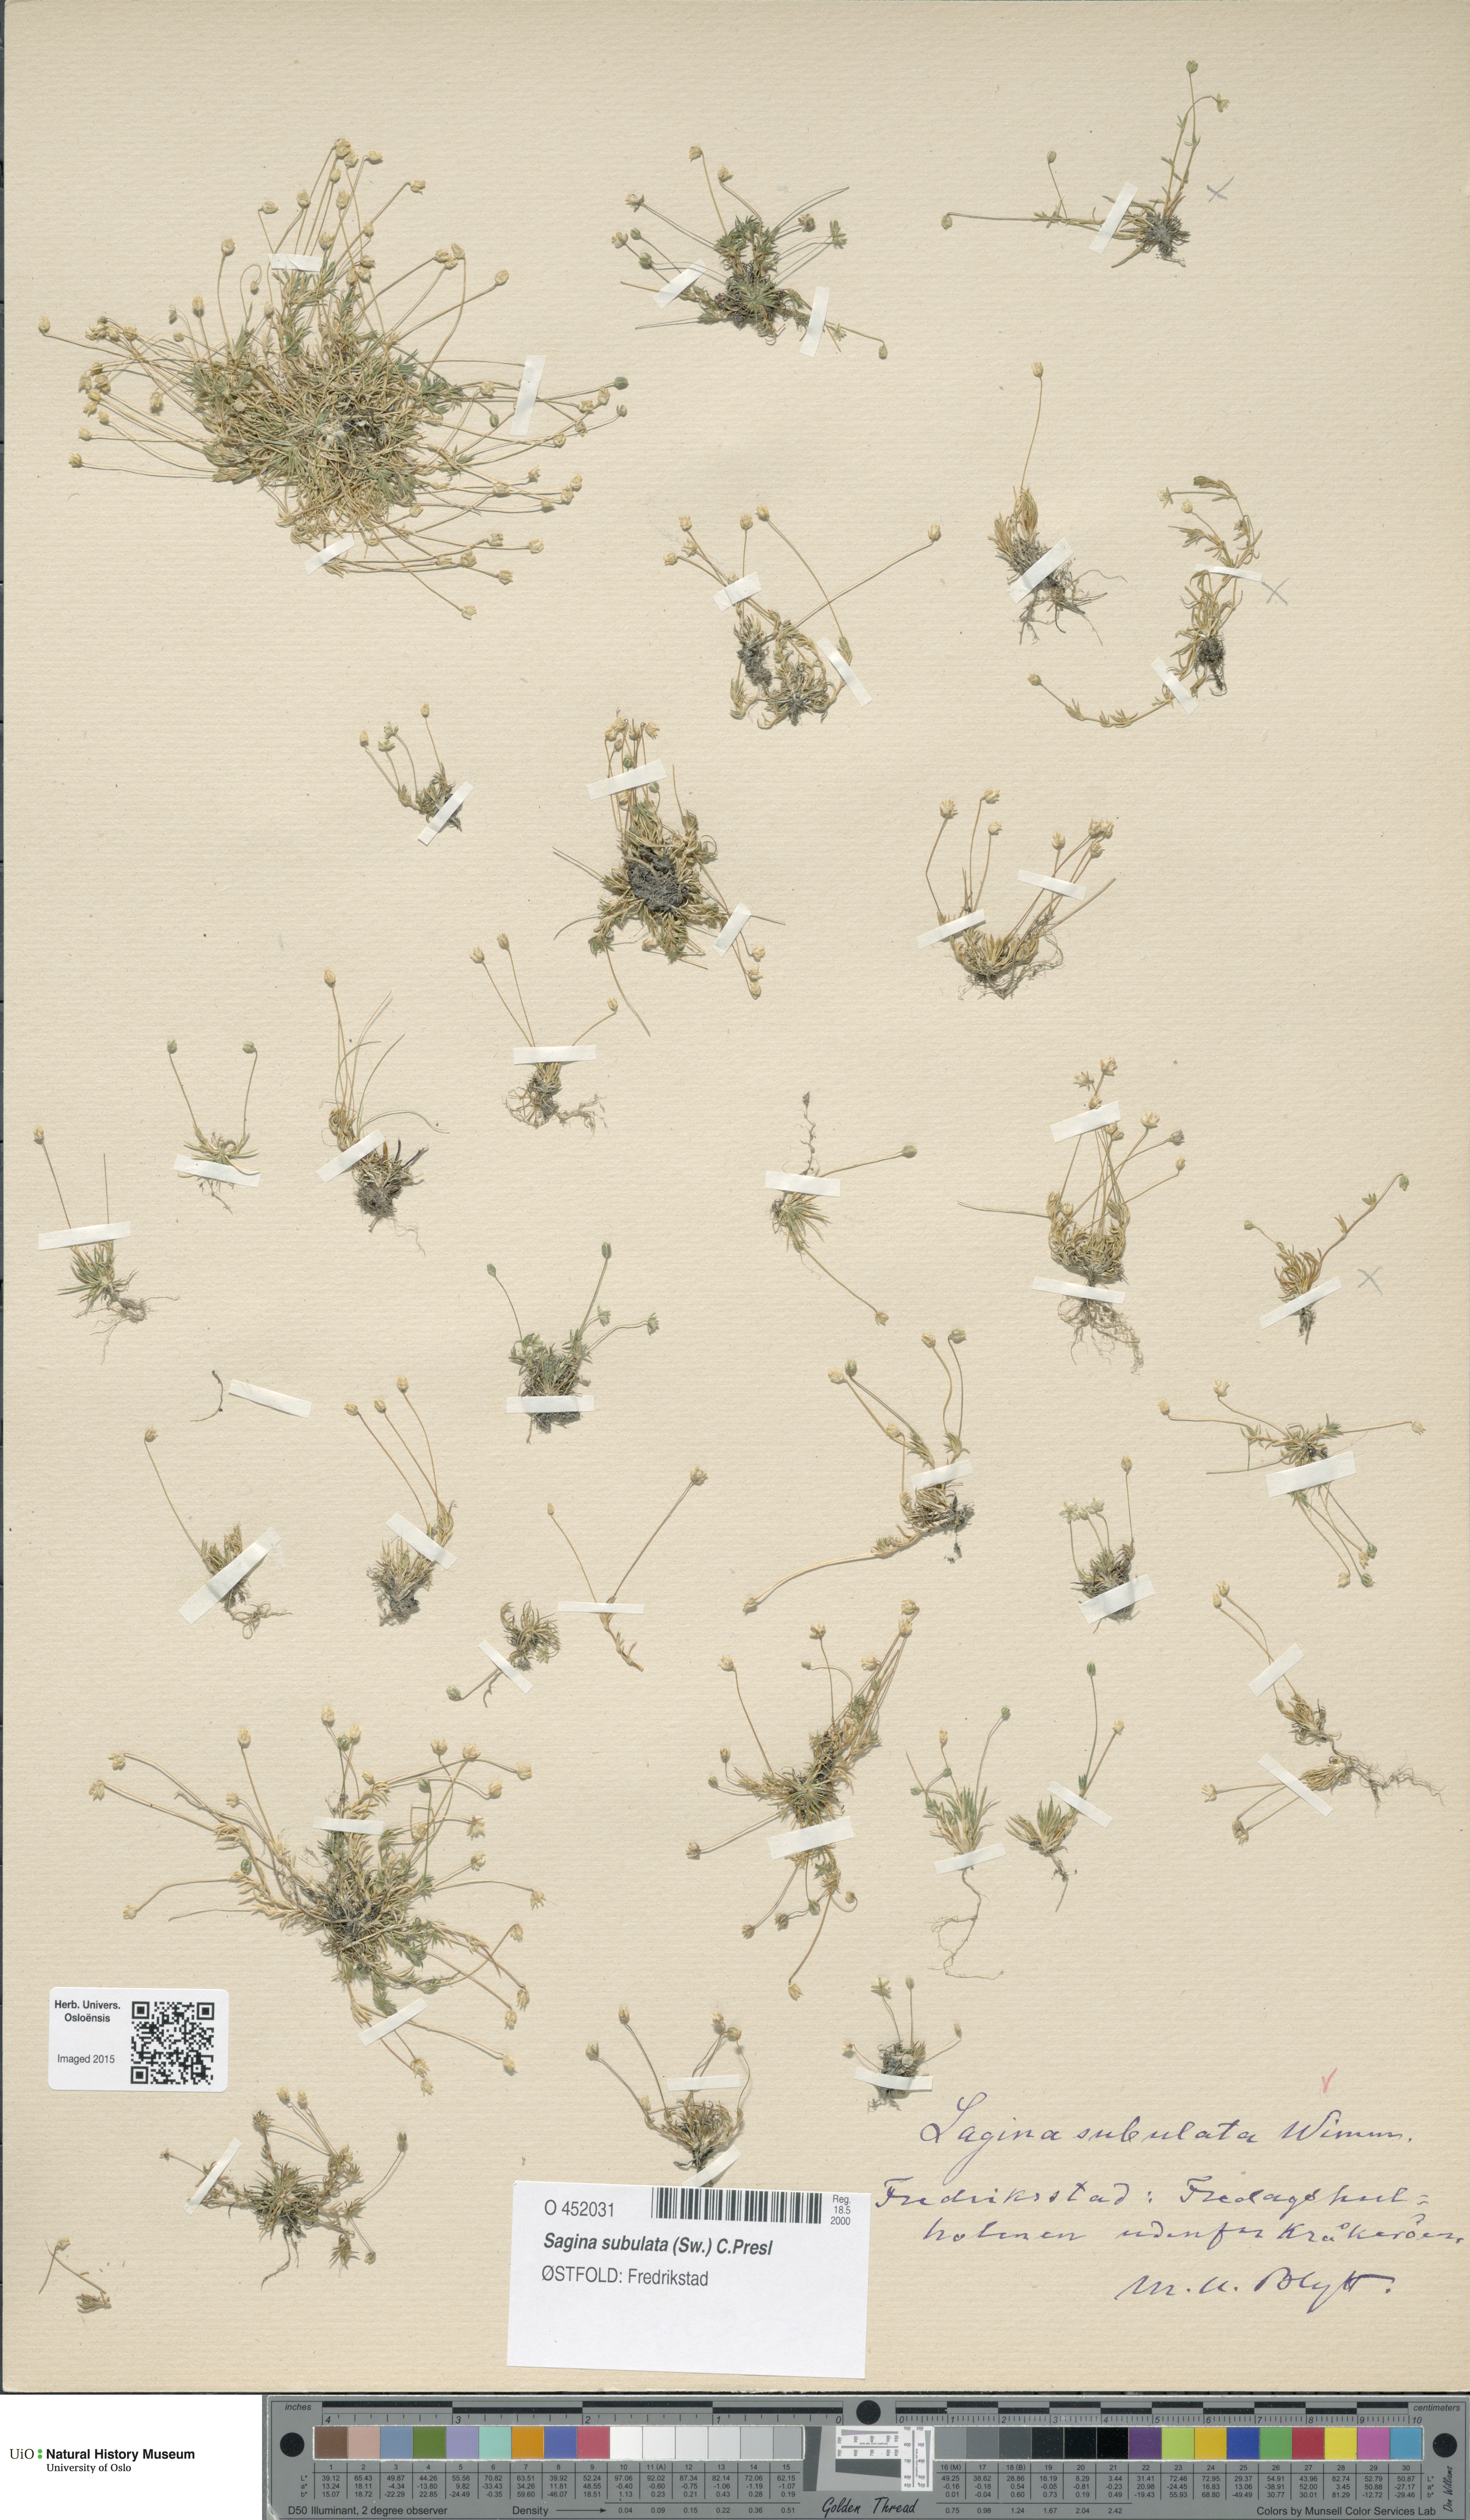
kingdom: Plantae
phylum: Tracheophyta
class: Magnoliopsida
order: Caryophyllales
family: Caryophyllaceae
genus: Sagina
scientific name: Sagina alexandrae
